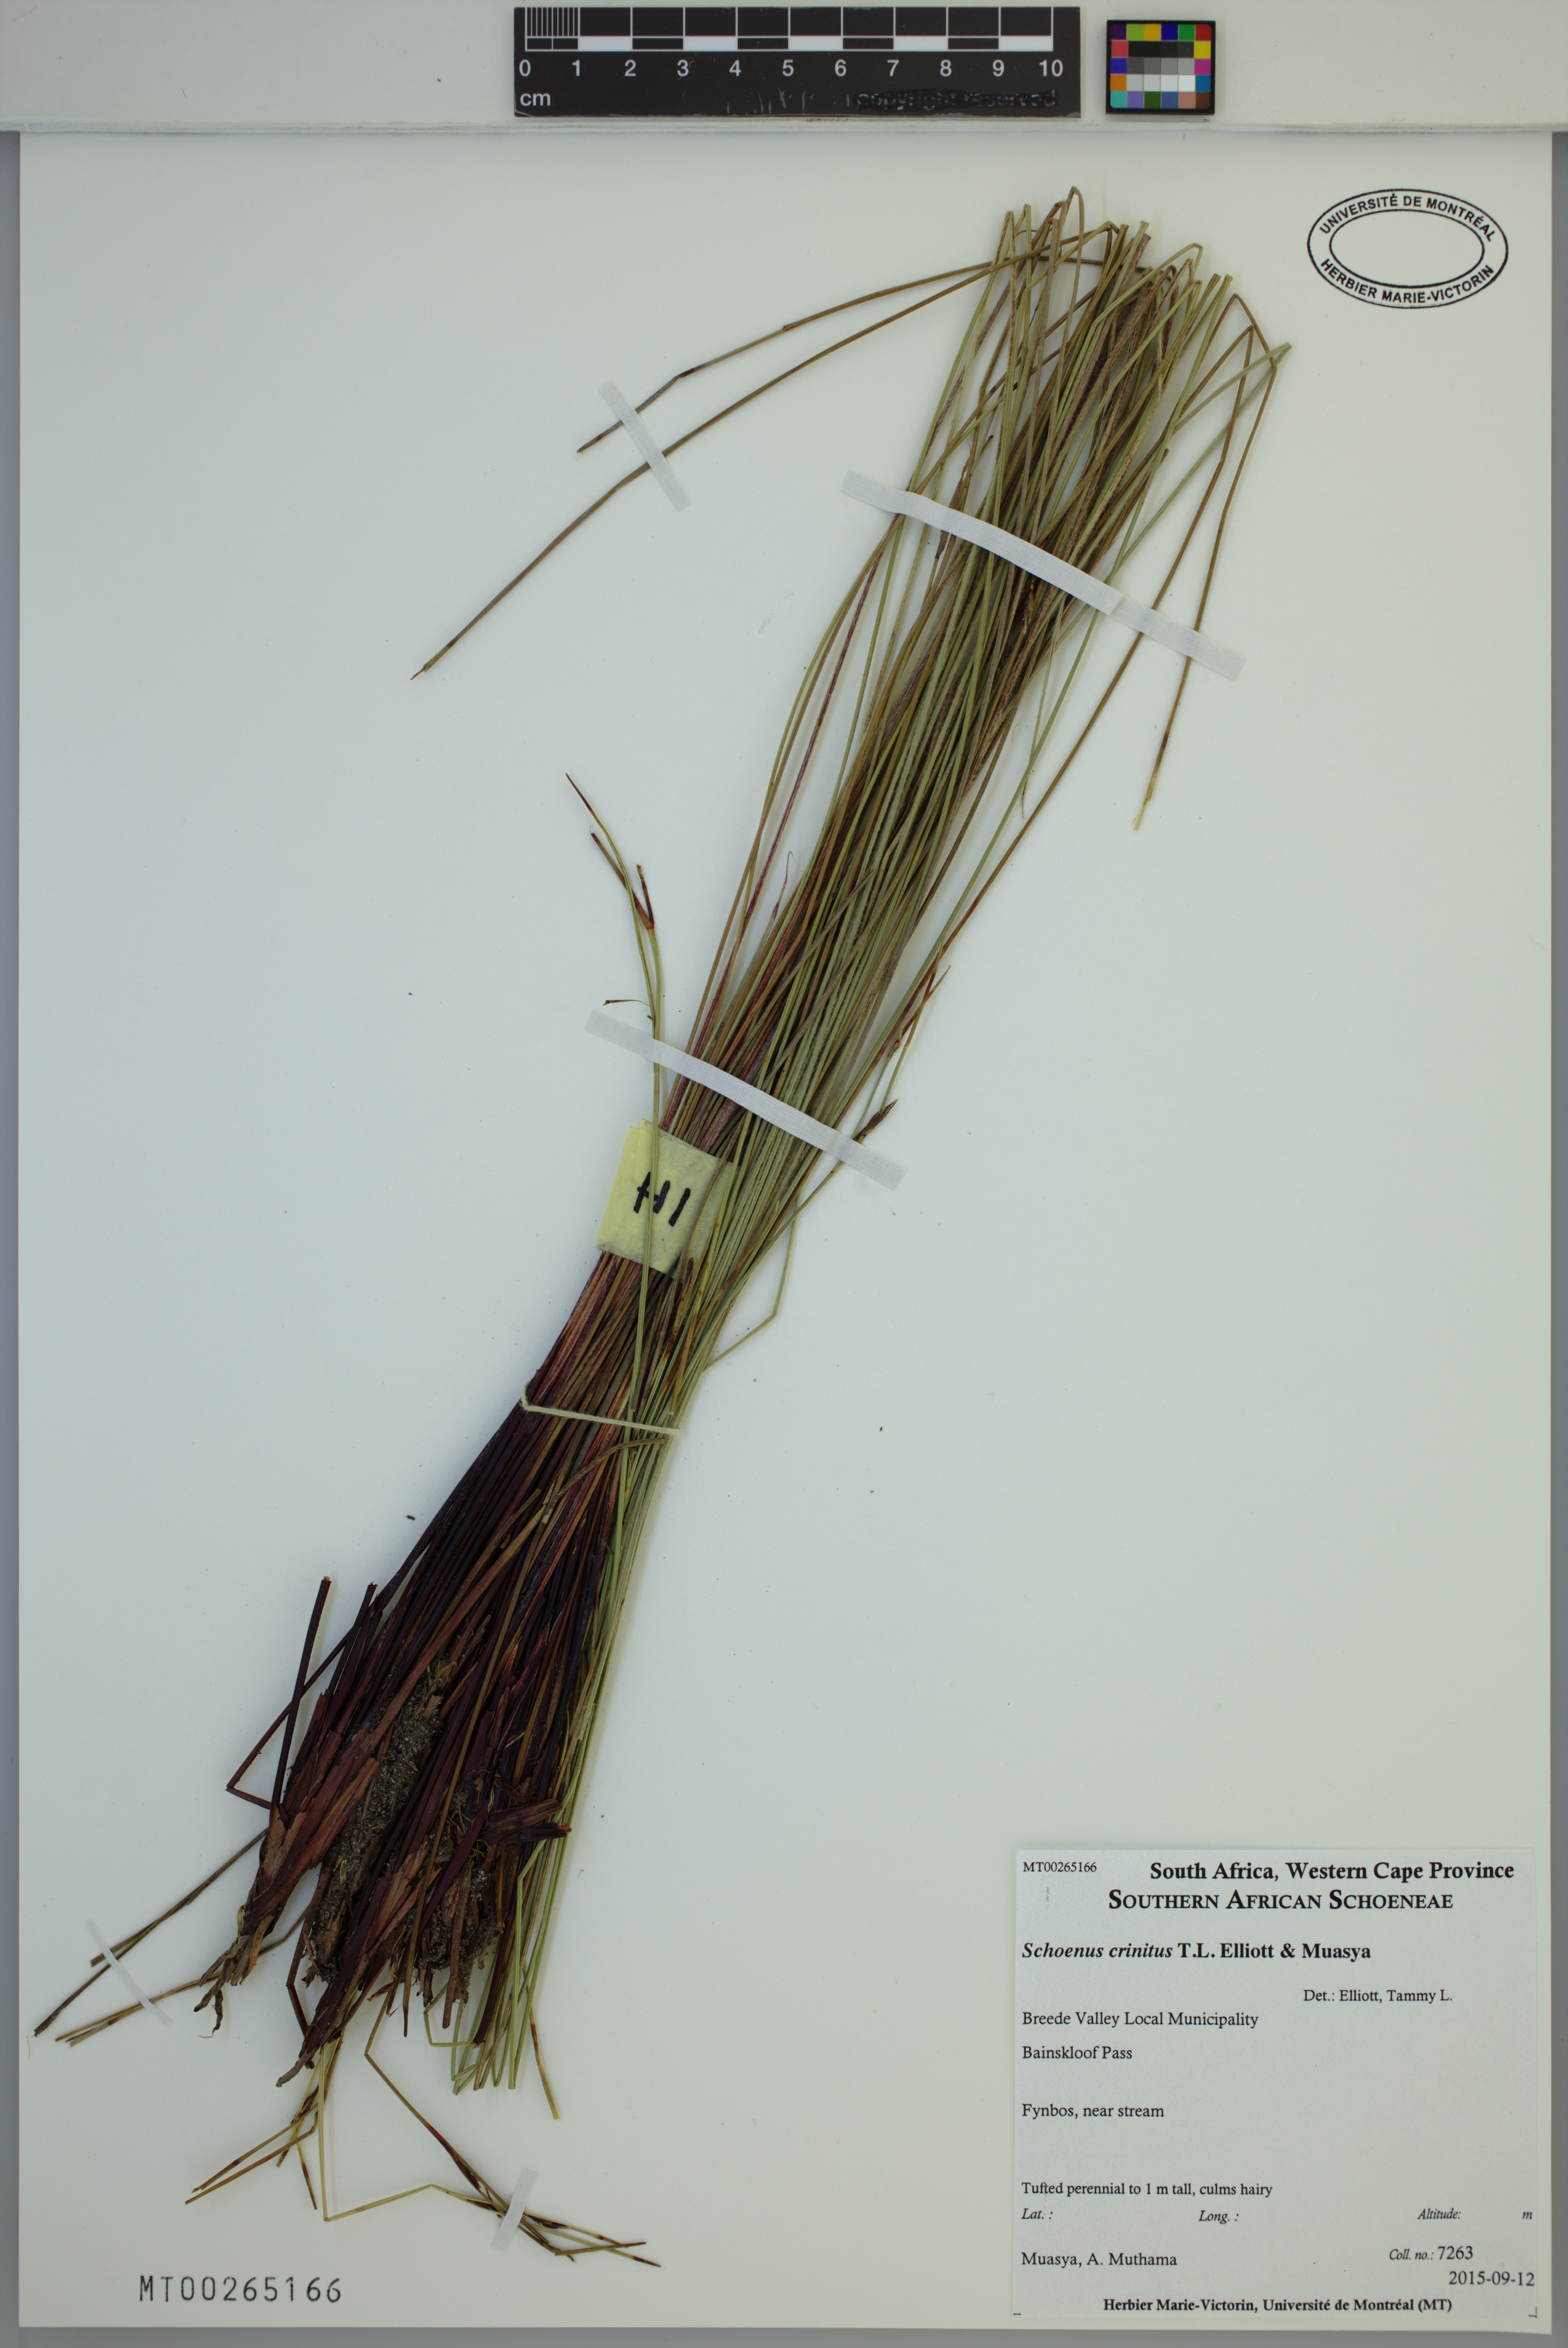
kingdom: Plantae
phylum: Tracheophyta
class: Liliopsida
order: Poales
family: Cyperaceae
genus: Schoenus
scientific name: Schoenus crinitus
